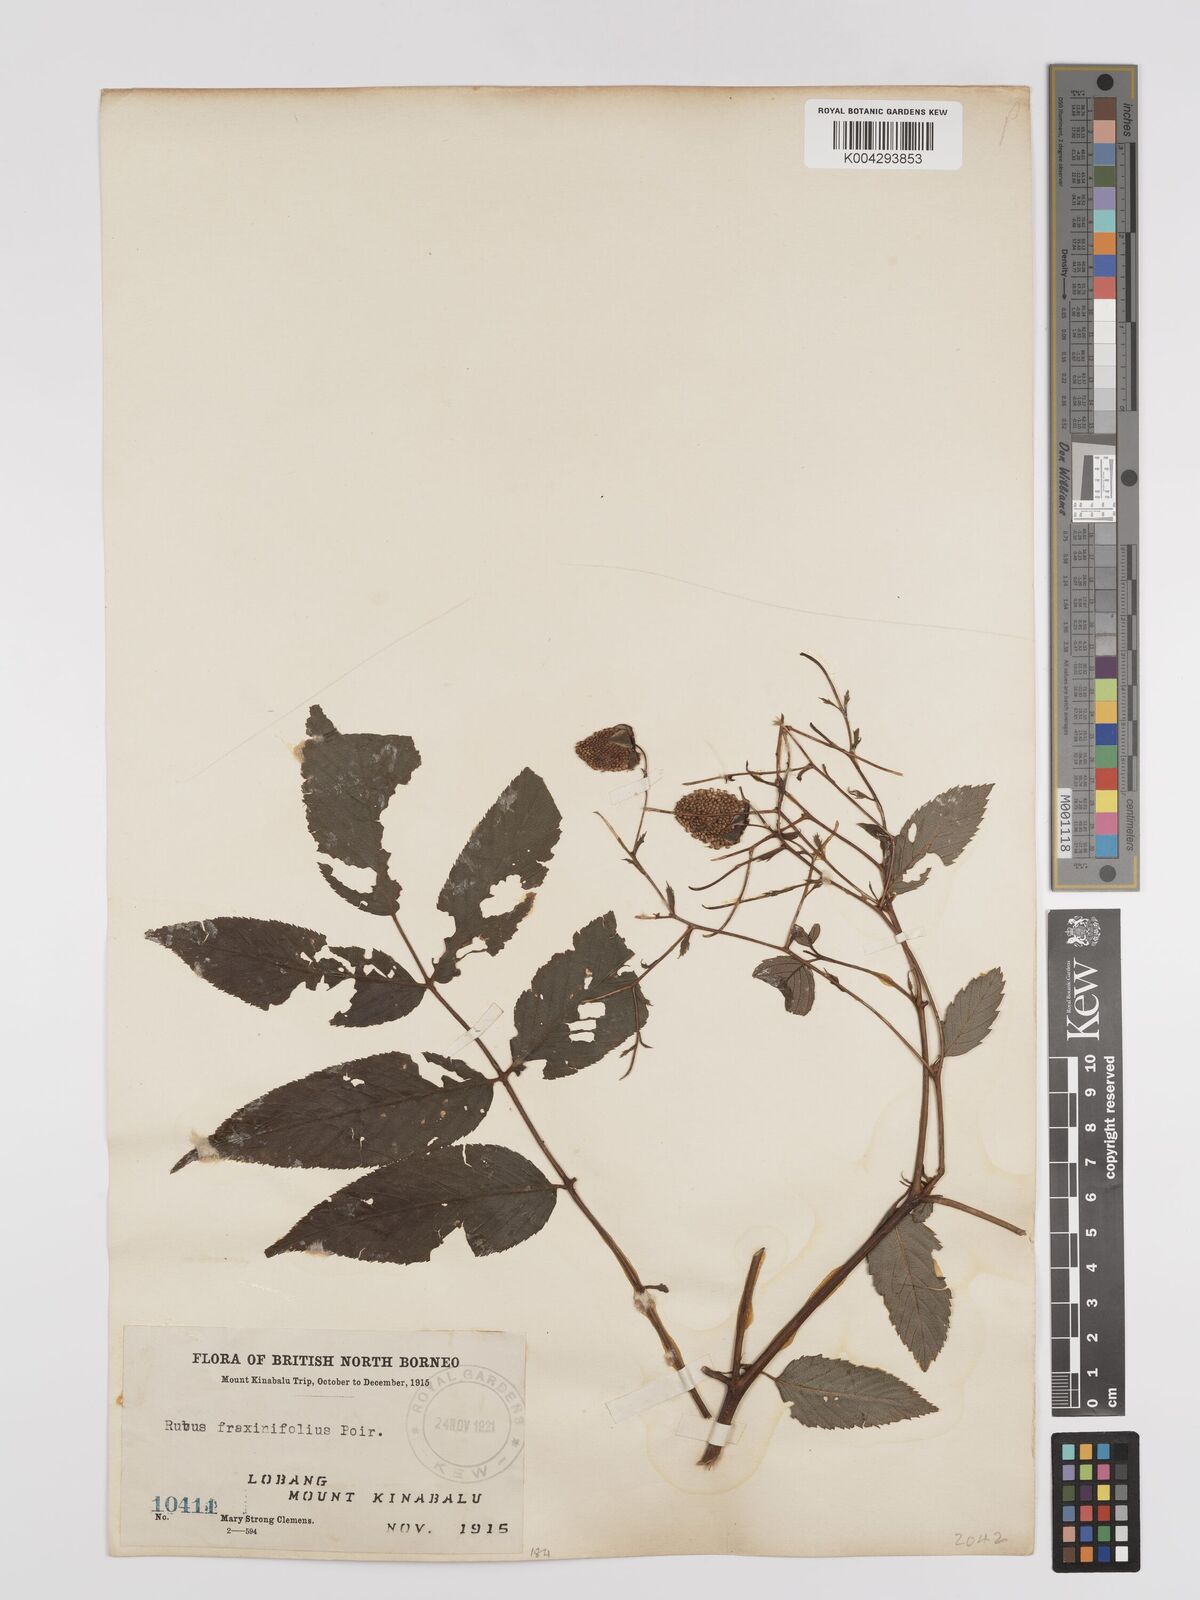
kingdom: Plantae
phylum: Tracheophyta
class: Magnoliopsida
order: Rosales
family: Rosaceae
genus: Rubus
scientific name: Rubus fraxinifolius
